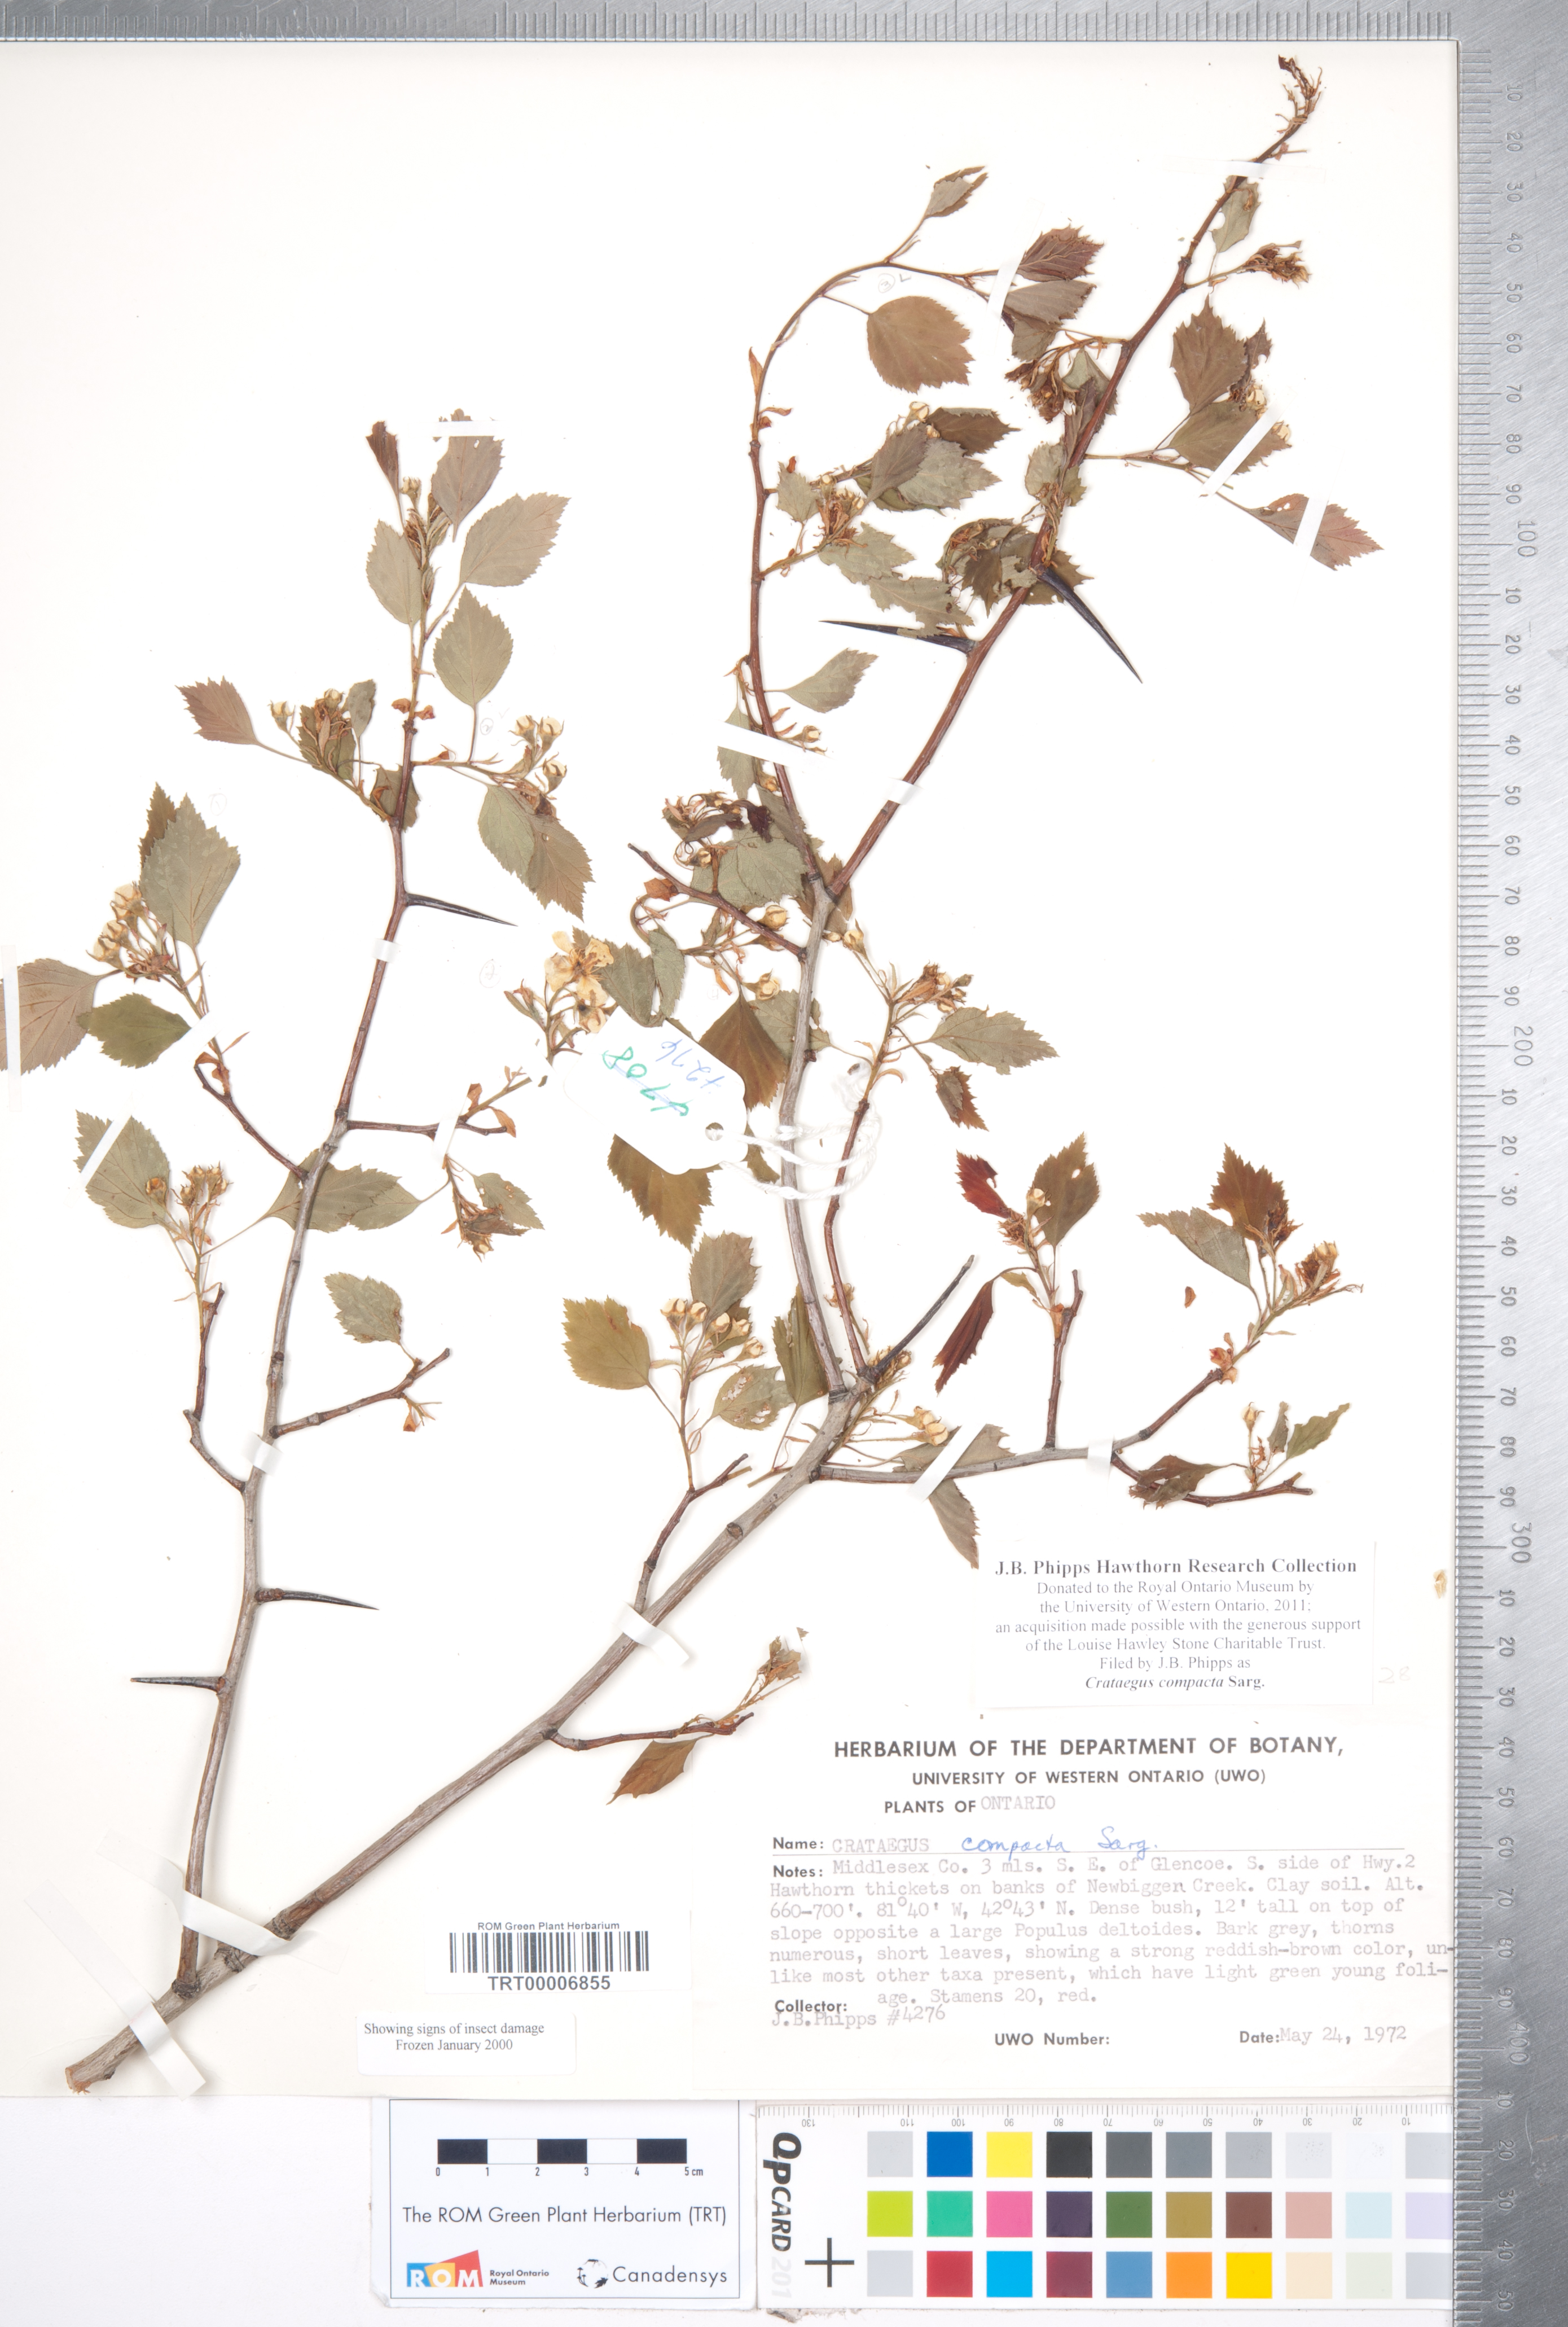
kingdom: Plantae
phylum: Tracheophyta
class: Magnoliopsida
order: Rosales
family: Rosaceae
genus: Crataegus
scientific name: Crataegus compacta
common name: Clustered hawthorn
